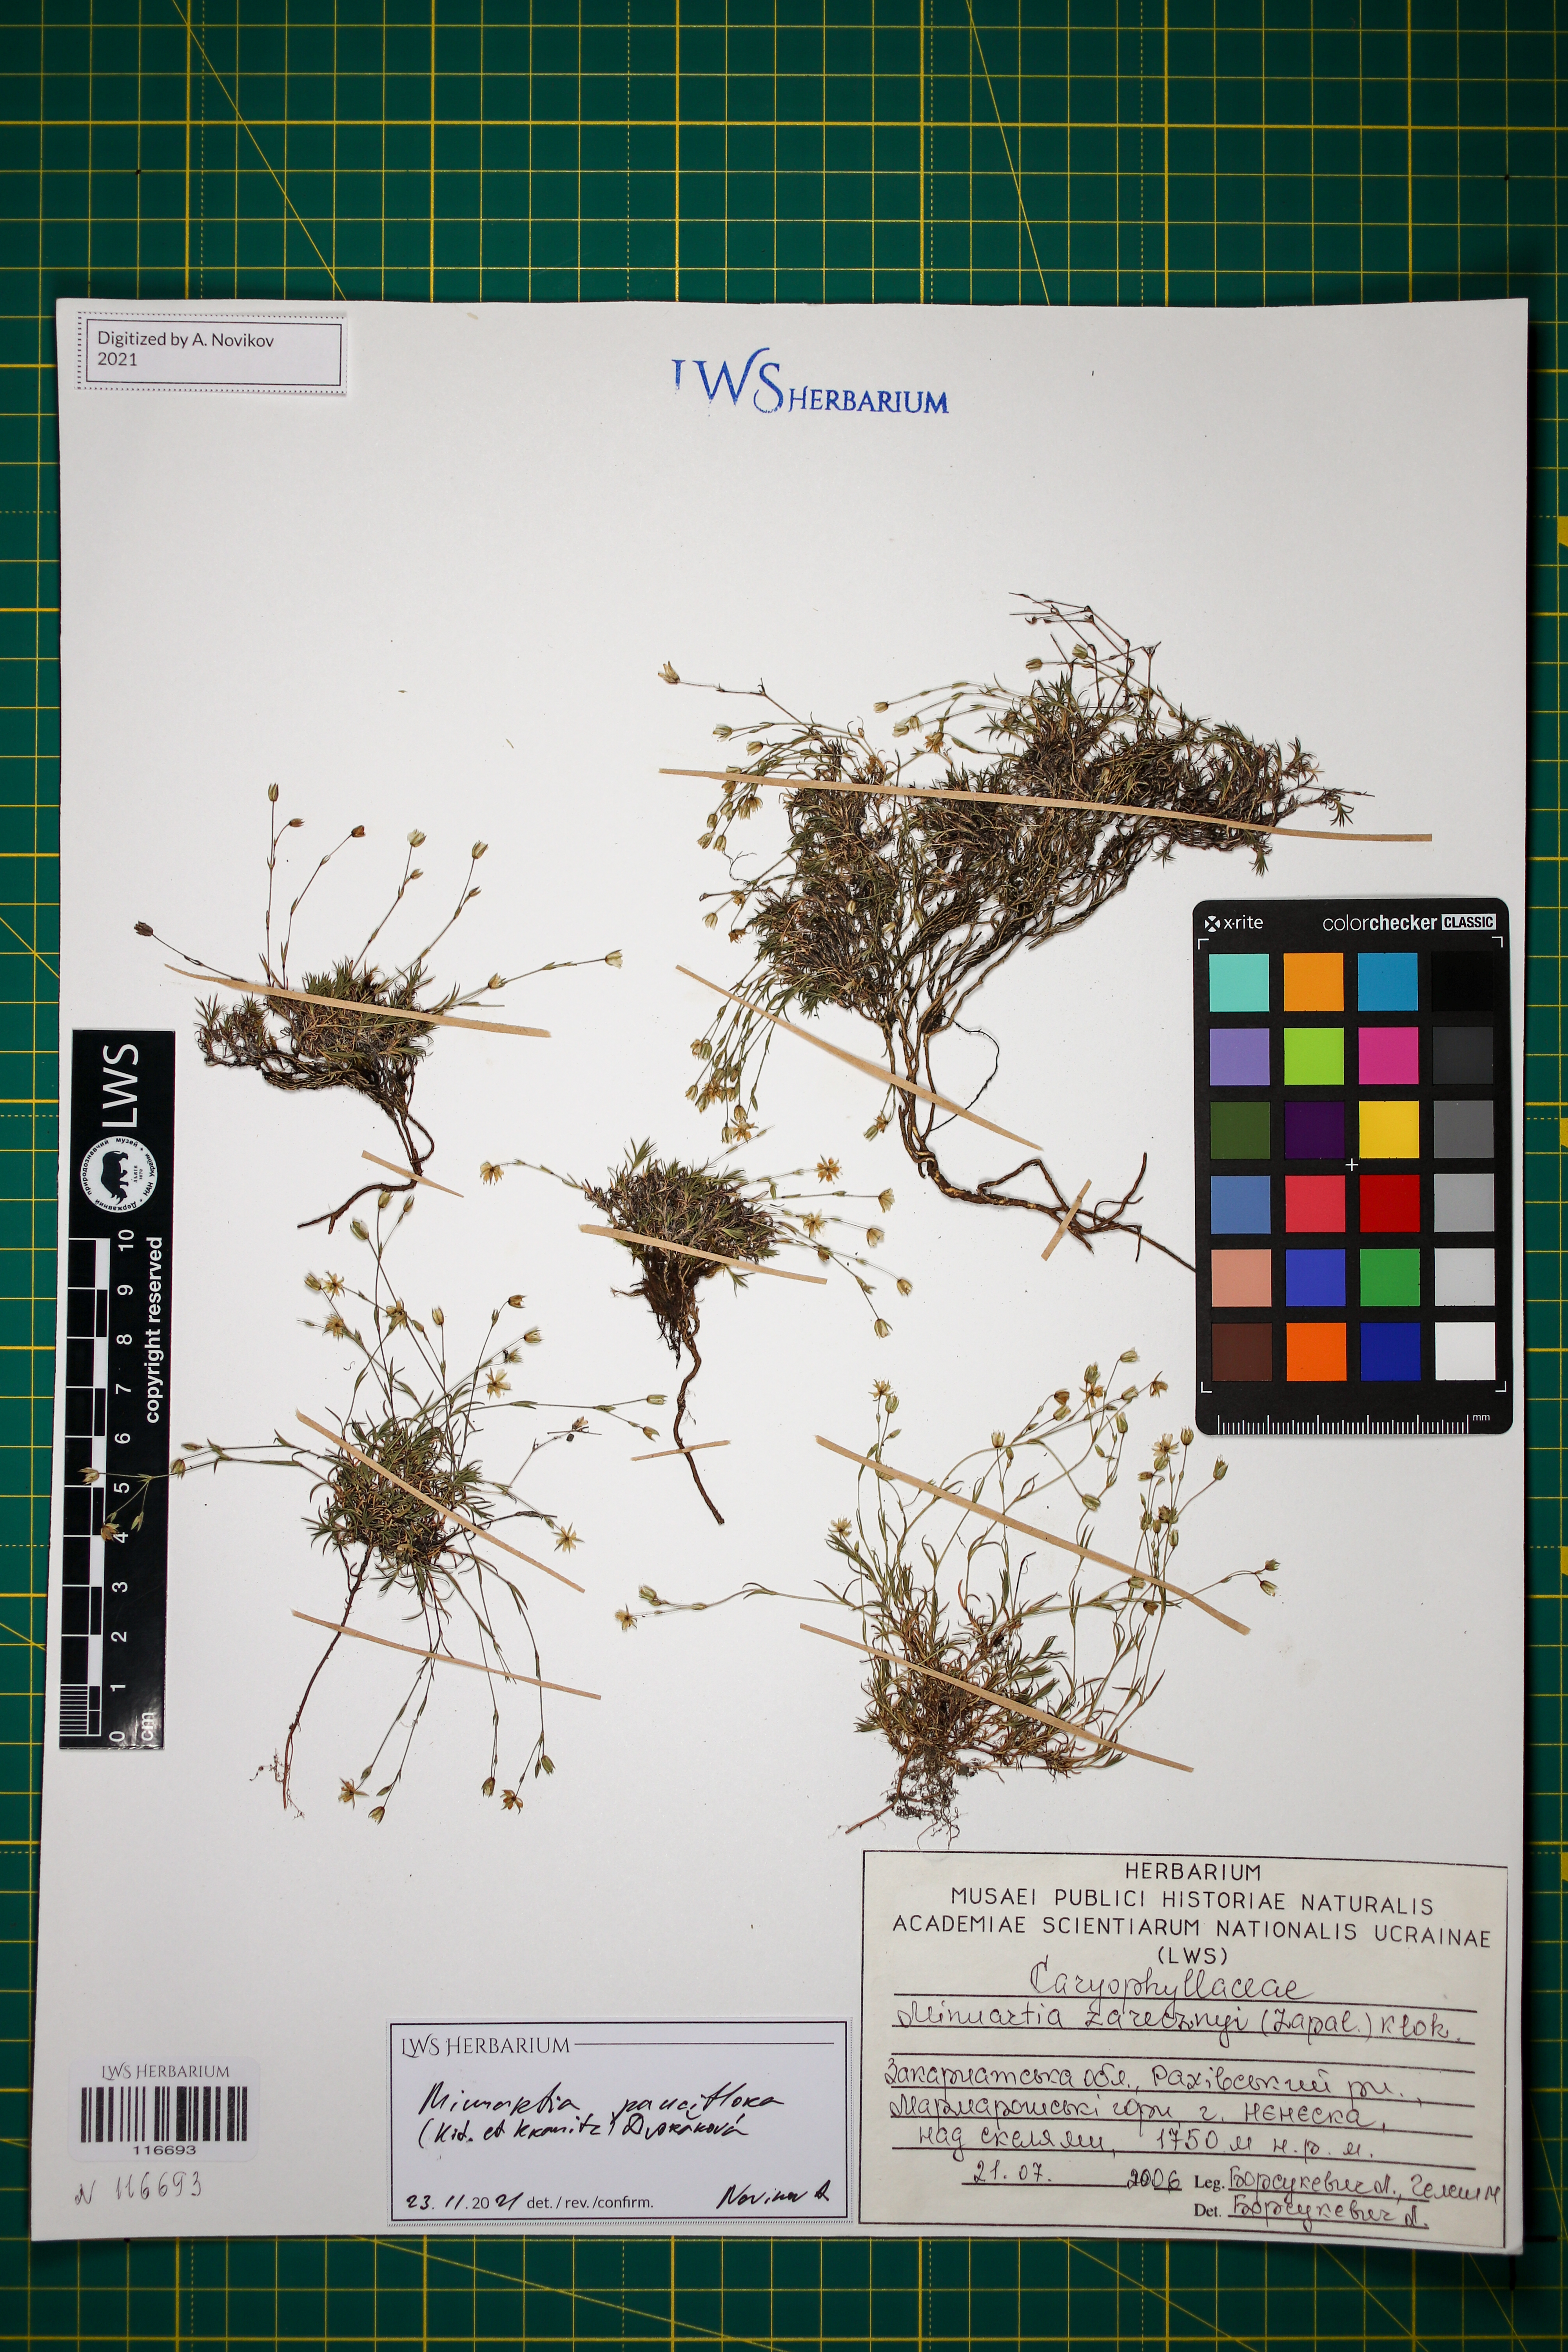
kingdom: Plantae
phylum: Tracheophyta
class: Magnoliopsida
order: Caryophyllales
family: Caryophyllaceae
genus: Minuartia
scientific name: Minuartia pauciflora
